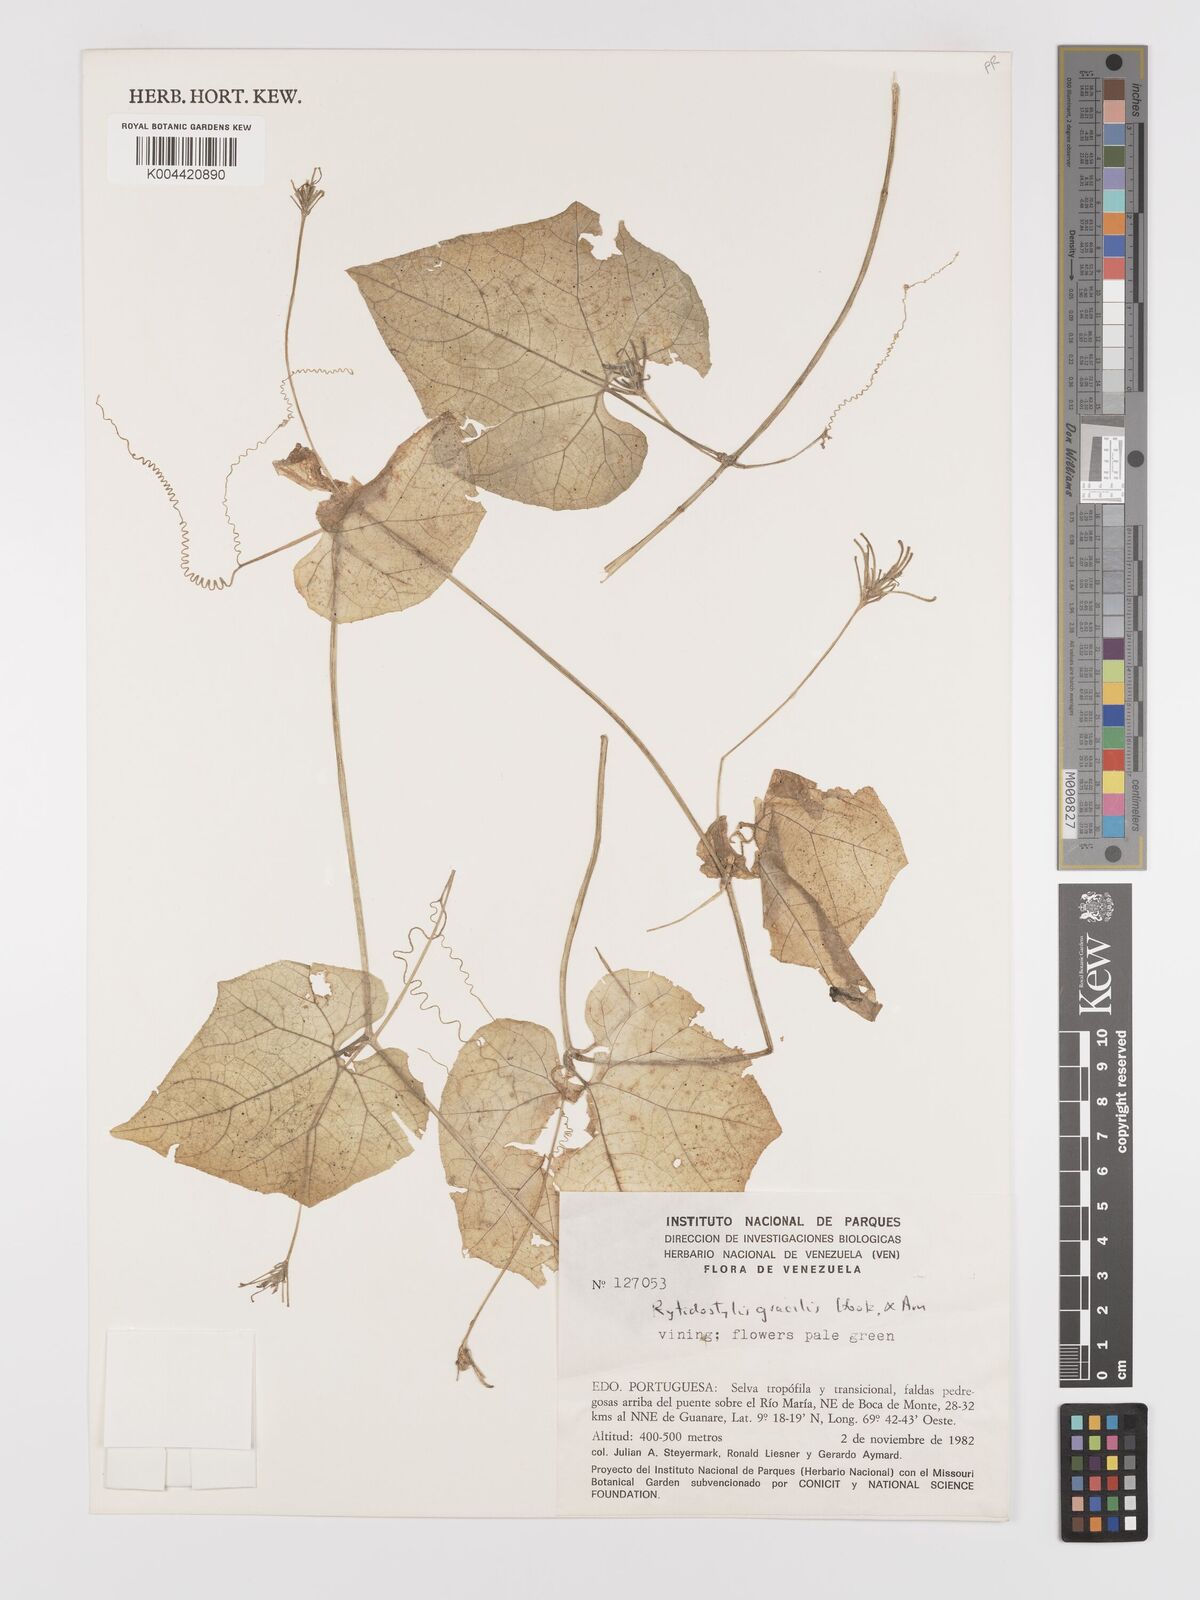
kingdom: Plantae
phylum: Tracheophyta
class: Magnoliopsida
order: Cucurbitales
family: Cucurbitaceae
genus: Cyclanthera
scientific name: Cyclanthera filiformis
